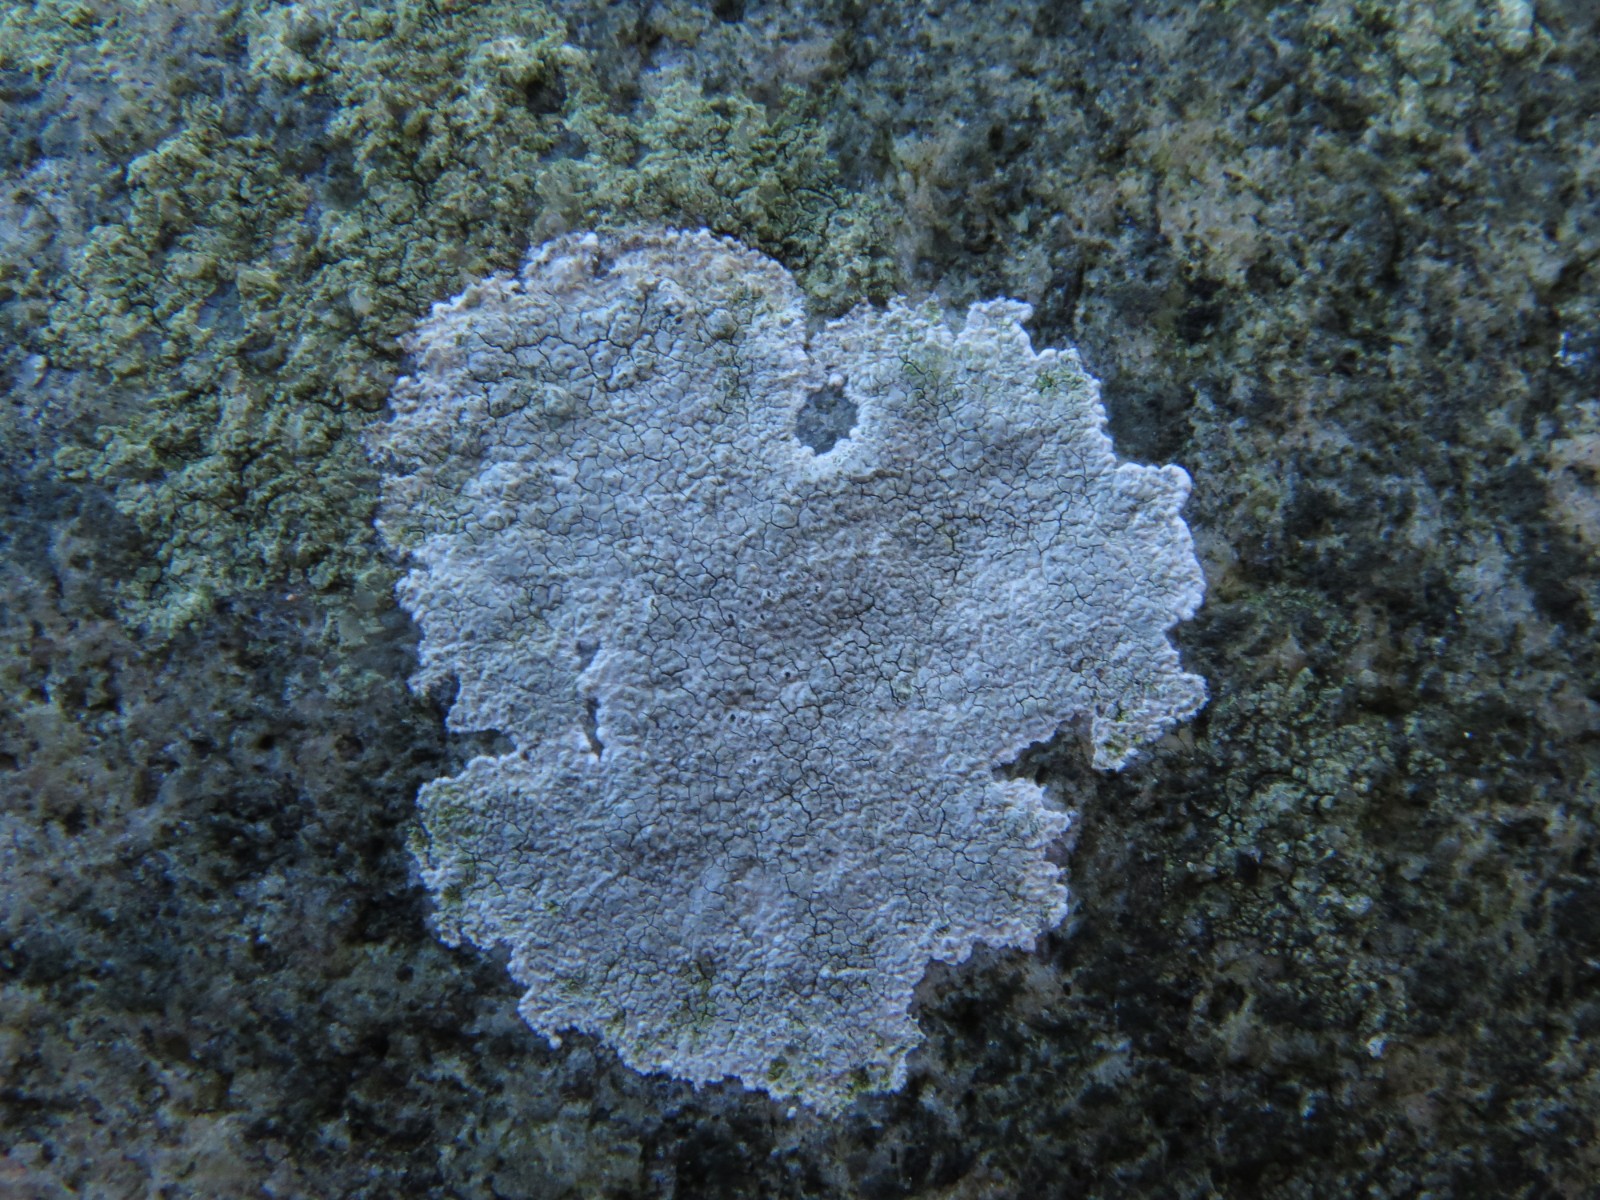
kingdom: Fungi
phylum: Ascomycota
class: Lecanoromycetes
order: Lecanorales
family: Lecanoraceae
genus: Glaucomaria
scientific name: Glaucomaria rupicola
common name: stengærde-kantskivelav
